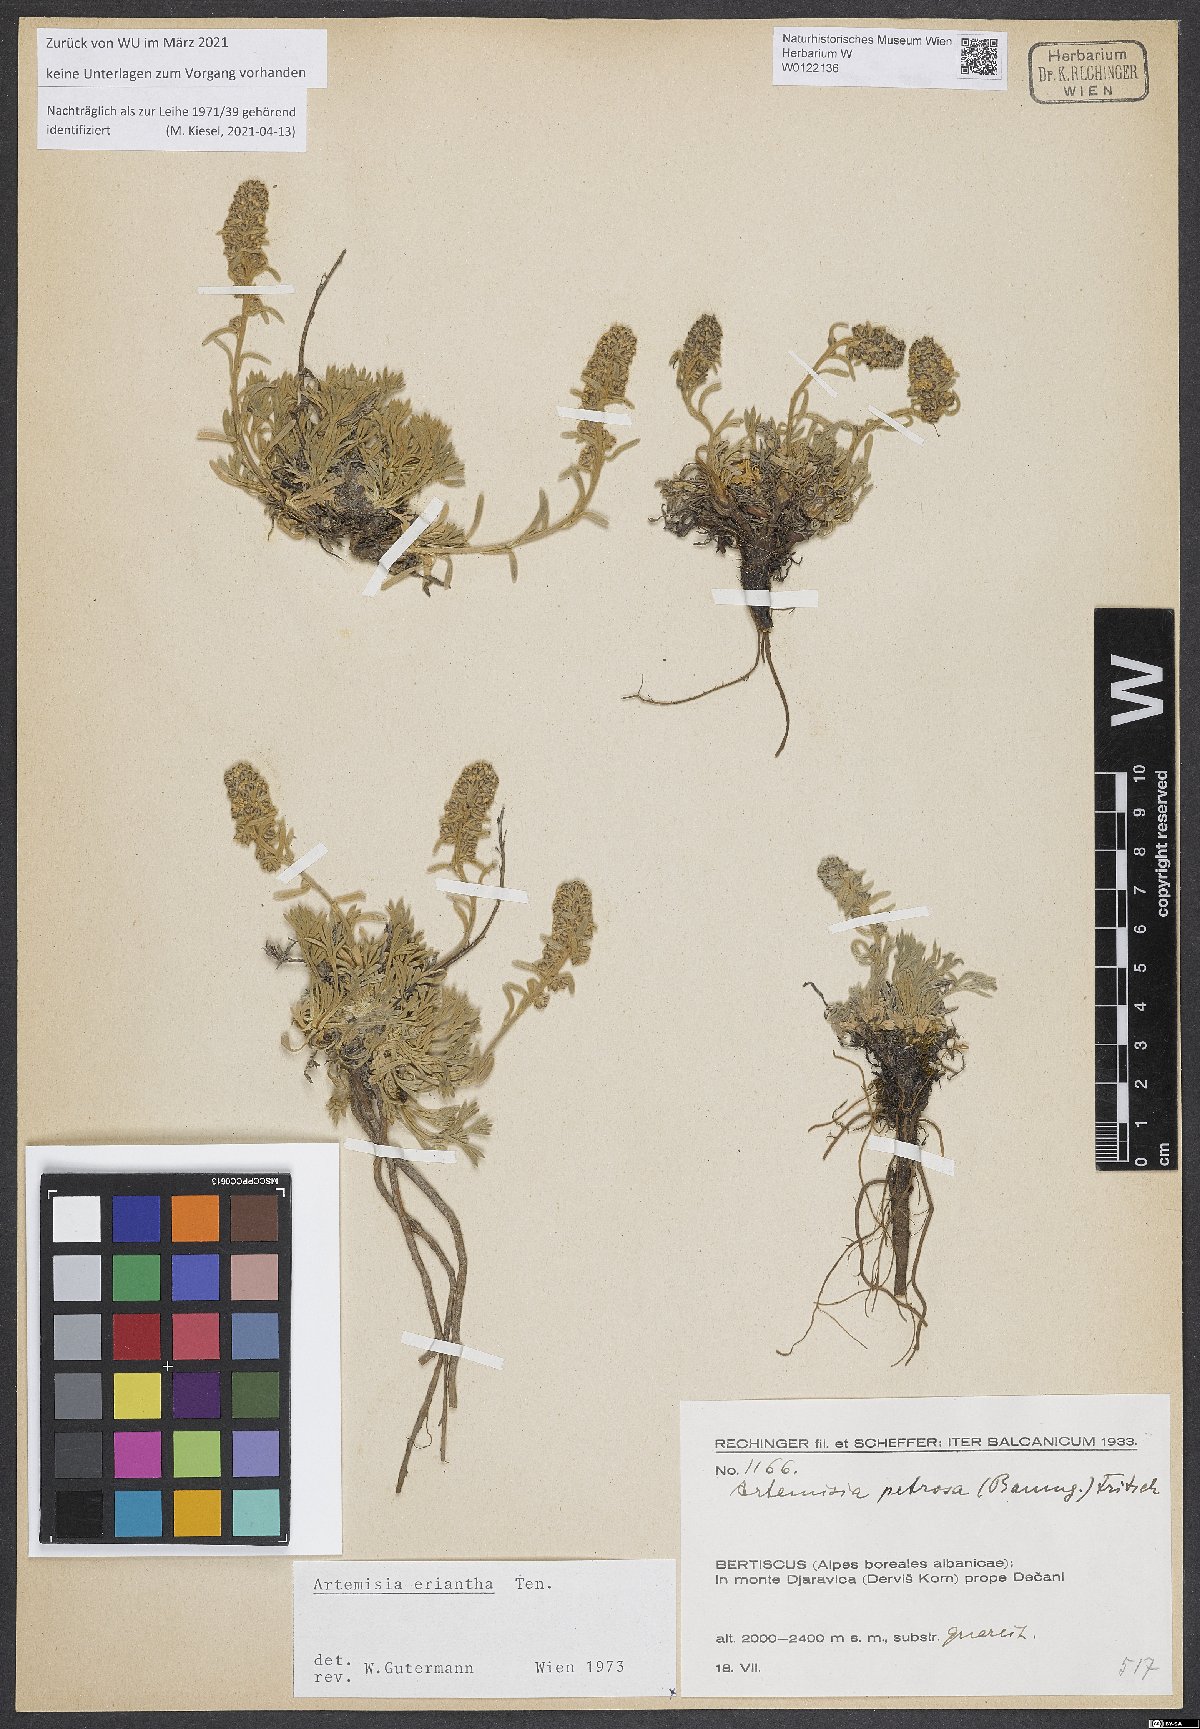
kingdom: Plantae
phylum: Tracheophyta
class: Magnoliopsida
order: Asterales
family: Asteraceae
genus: Artemisia
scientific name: Artemisia eriantha
